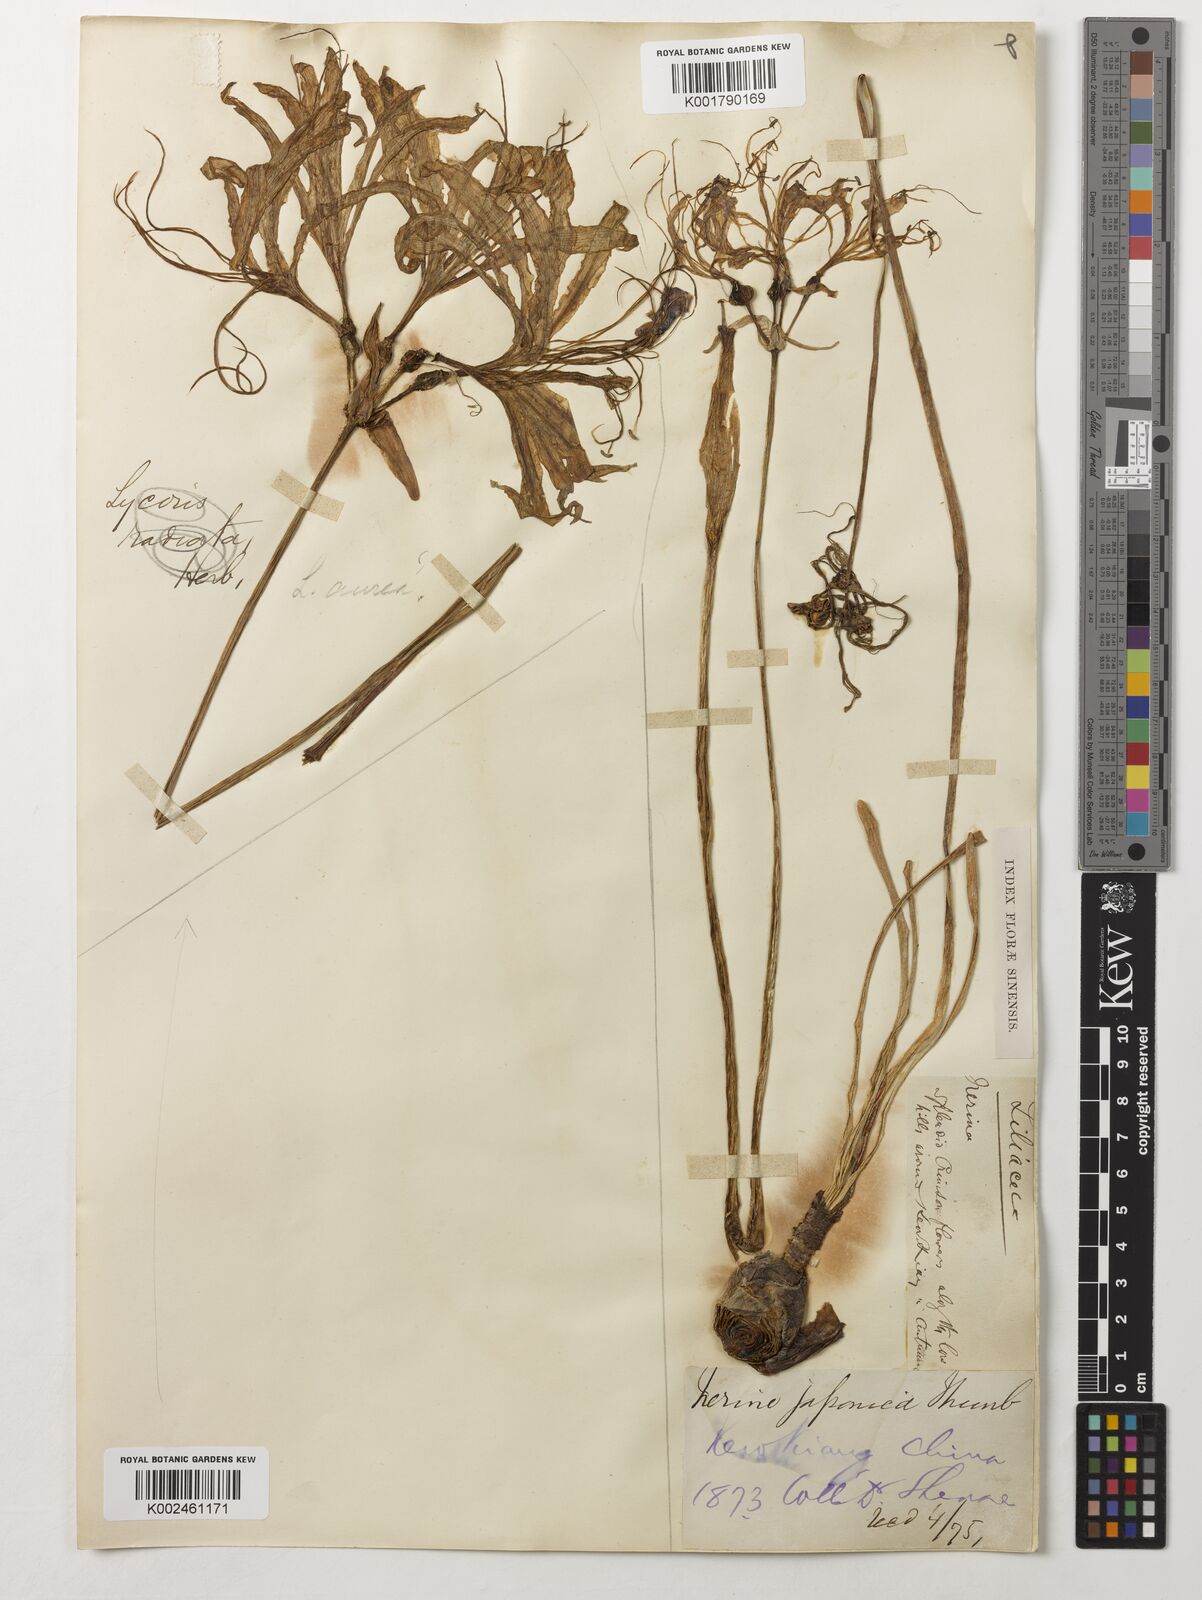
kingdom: Plantae
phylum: Tracheophyta
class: Liliopsida
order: Asparagales
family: Amaryllidaceae
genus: Lycoris
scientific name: Lycoris radiata
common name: Red spider lily
